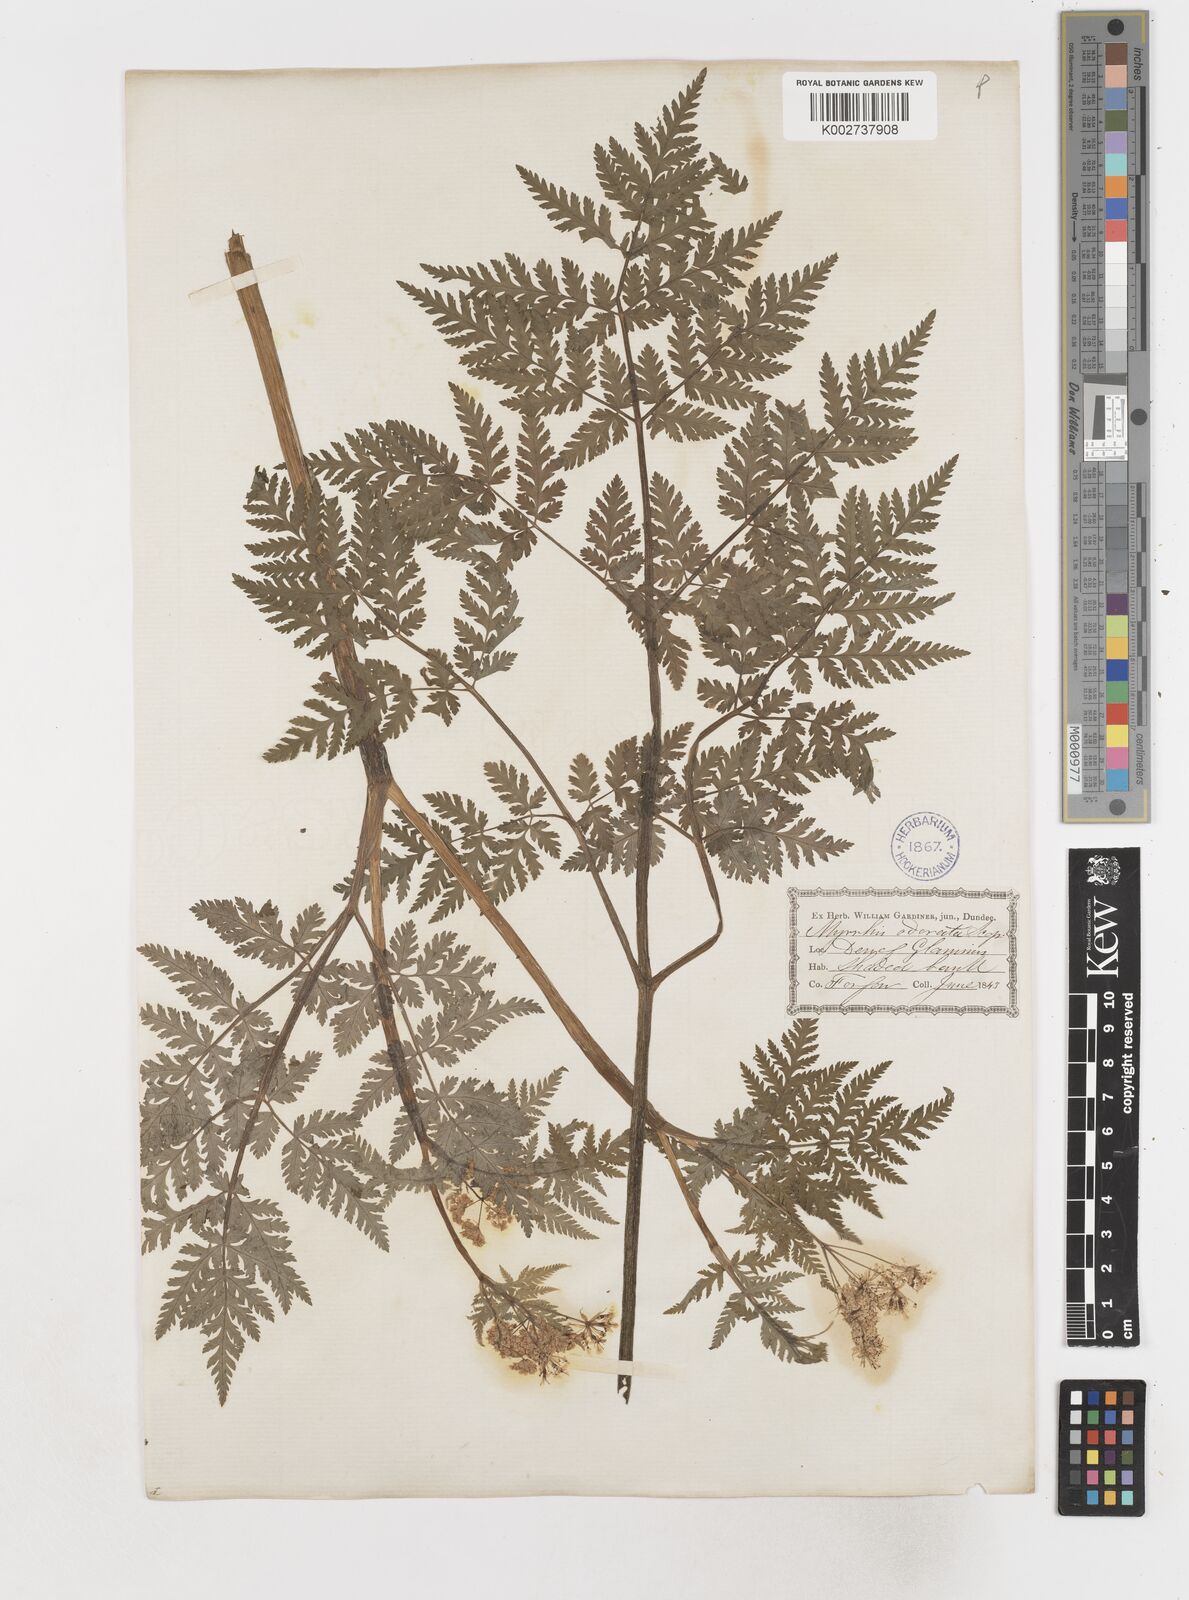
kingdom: Plantae
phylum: Tracheophyta
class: Magnoliopsida
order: Apiales
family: Apiaceae
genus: Myrrhis
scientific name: Myrrhis odorata
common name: Sweet cicely
